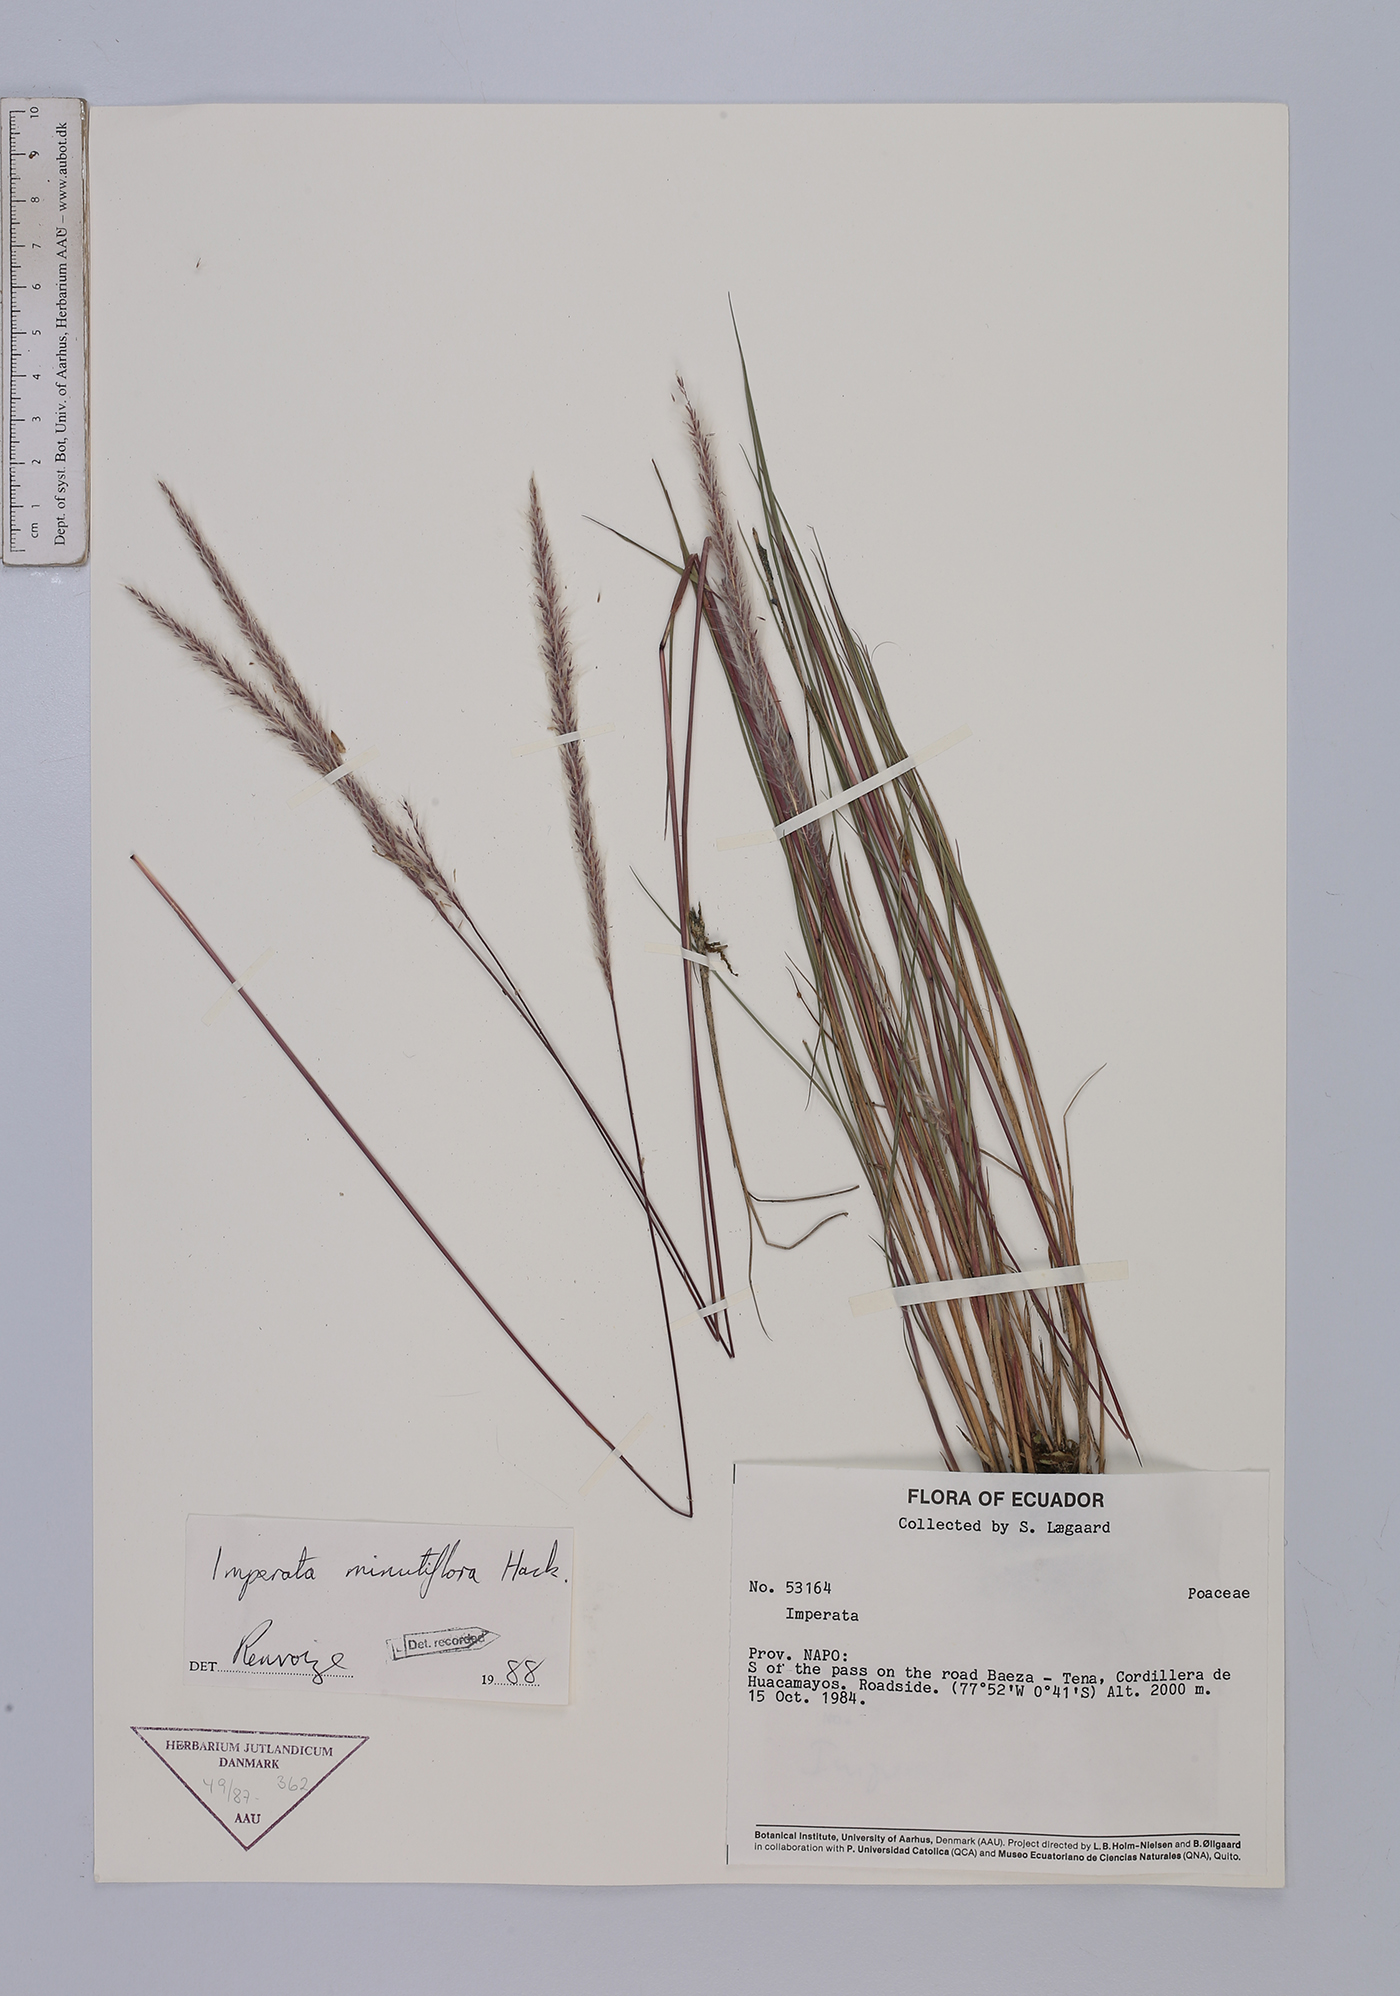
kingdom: Plantae
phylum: Tracheophyta
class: Liliopsida
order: Poales
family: Poaceae
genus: Imperata
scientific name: Imperata minutiflora
